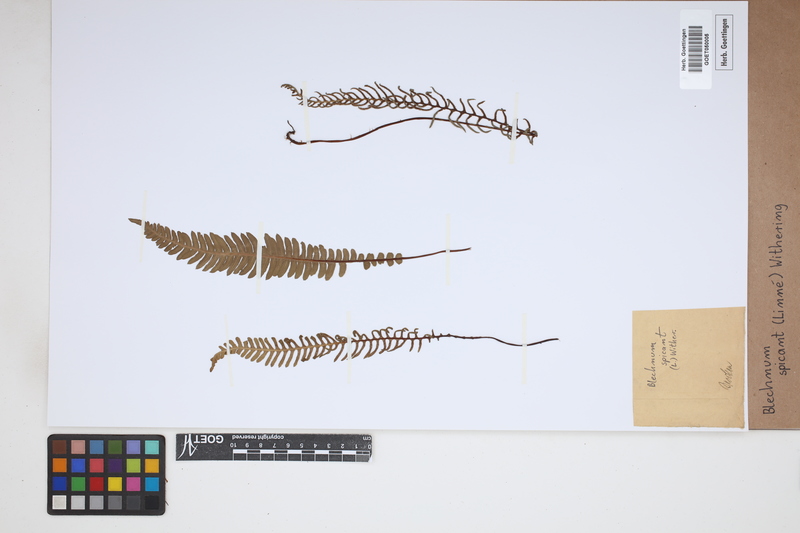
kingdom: Plantae
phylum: Tracheophyta
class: Polypodiopsida
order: Polypodiales
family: Blechnaceae
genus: Struthiopteris
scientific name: Struthiopteris spicant
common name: Deer fern
